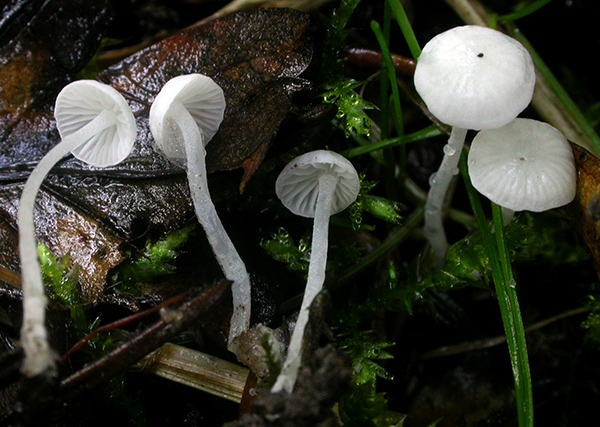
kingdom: Fungi
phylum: Basidiomycota
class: Agaricomycetes
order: Agaricales
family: Mycenaceae
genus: Hemimycena
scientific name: Hemimycena lactea
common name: mælkehvid huesvamp
